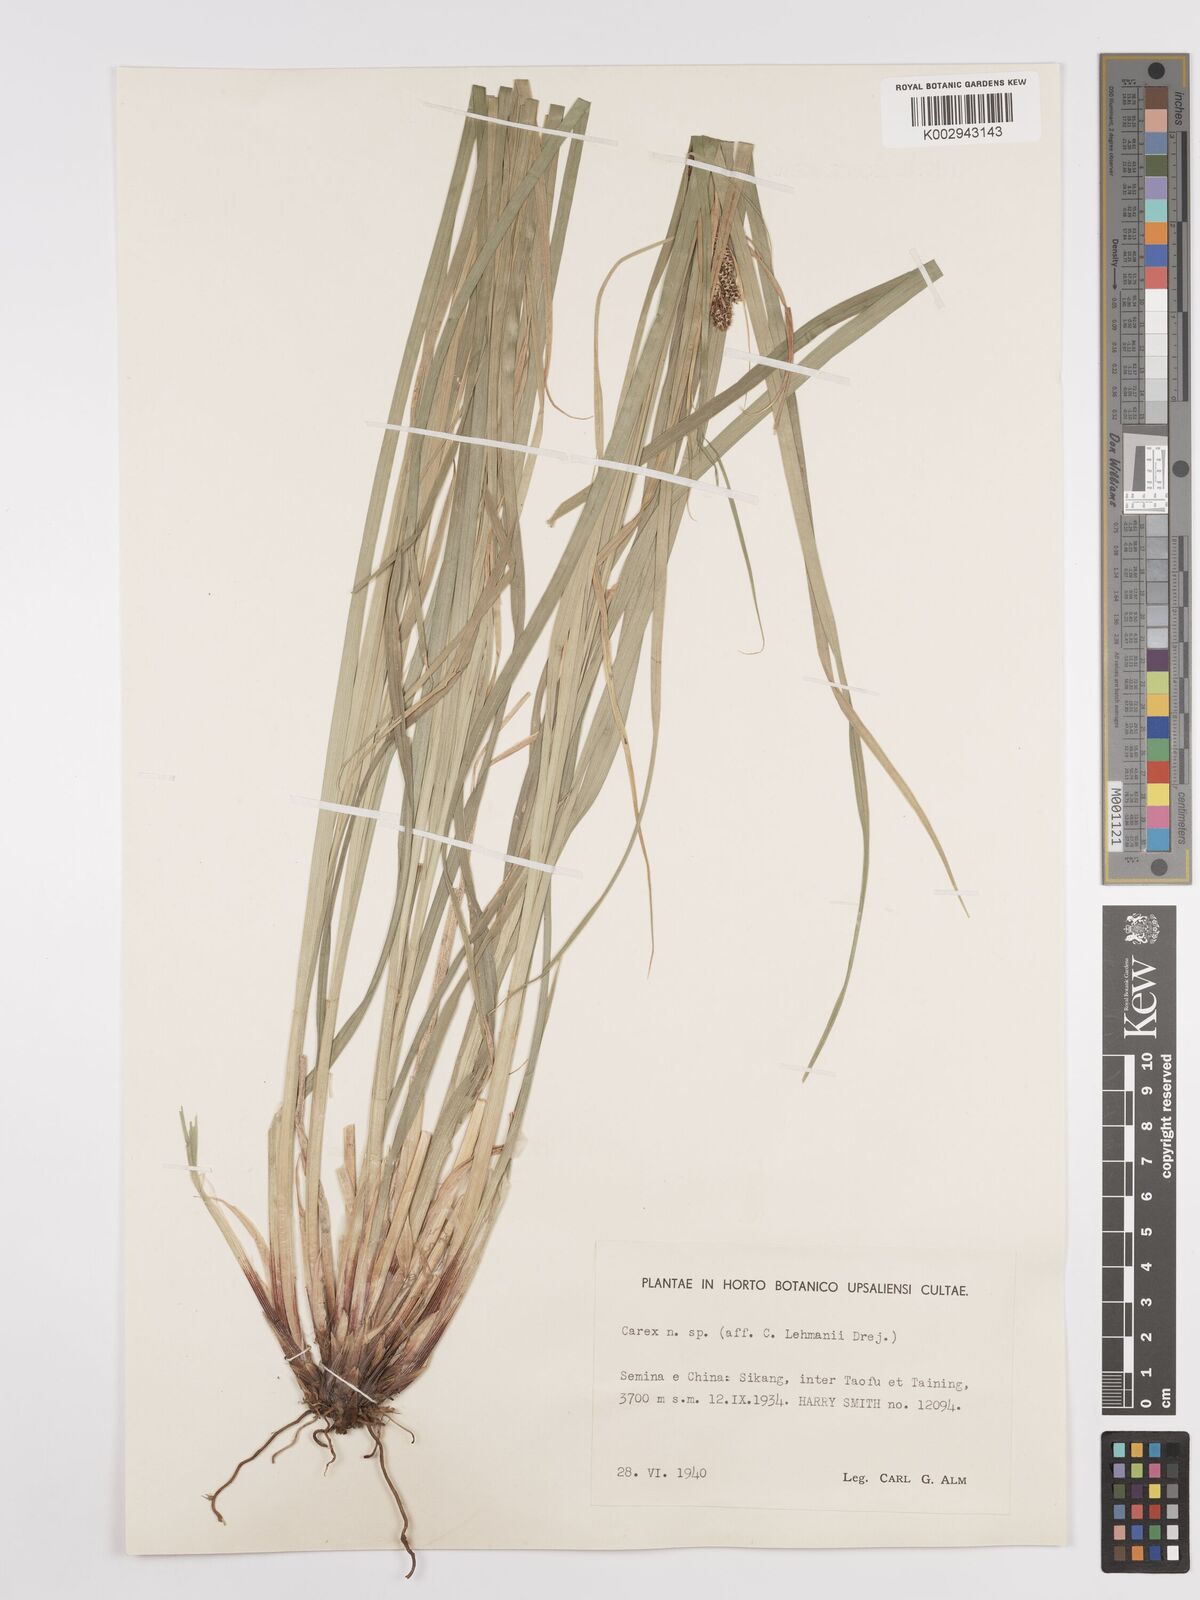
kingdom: Plantae
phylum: Tracheophyta
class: Liliopsida
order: Poales
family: Cyperaceae
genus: Carex
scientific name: Carex
